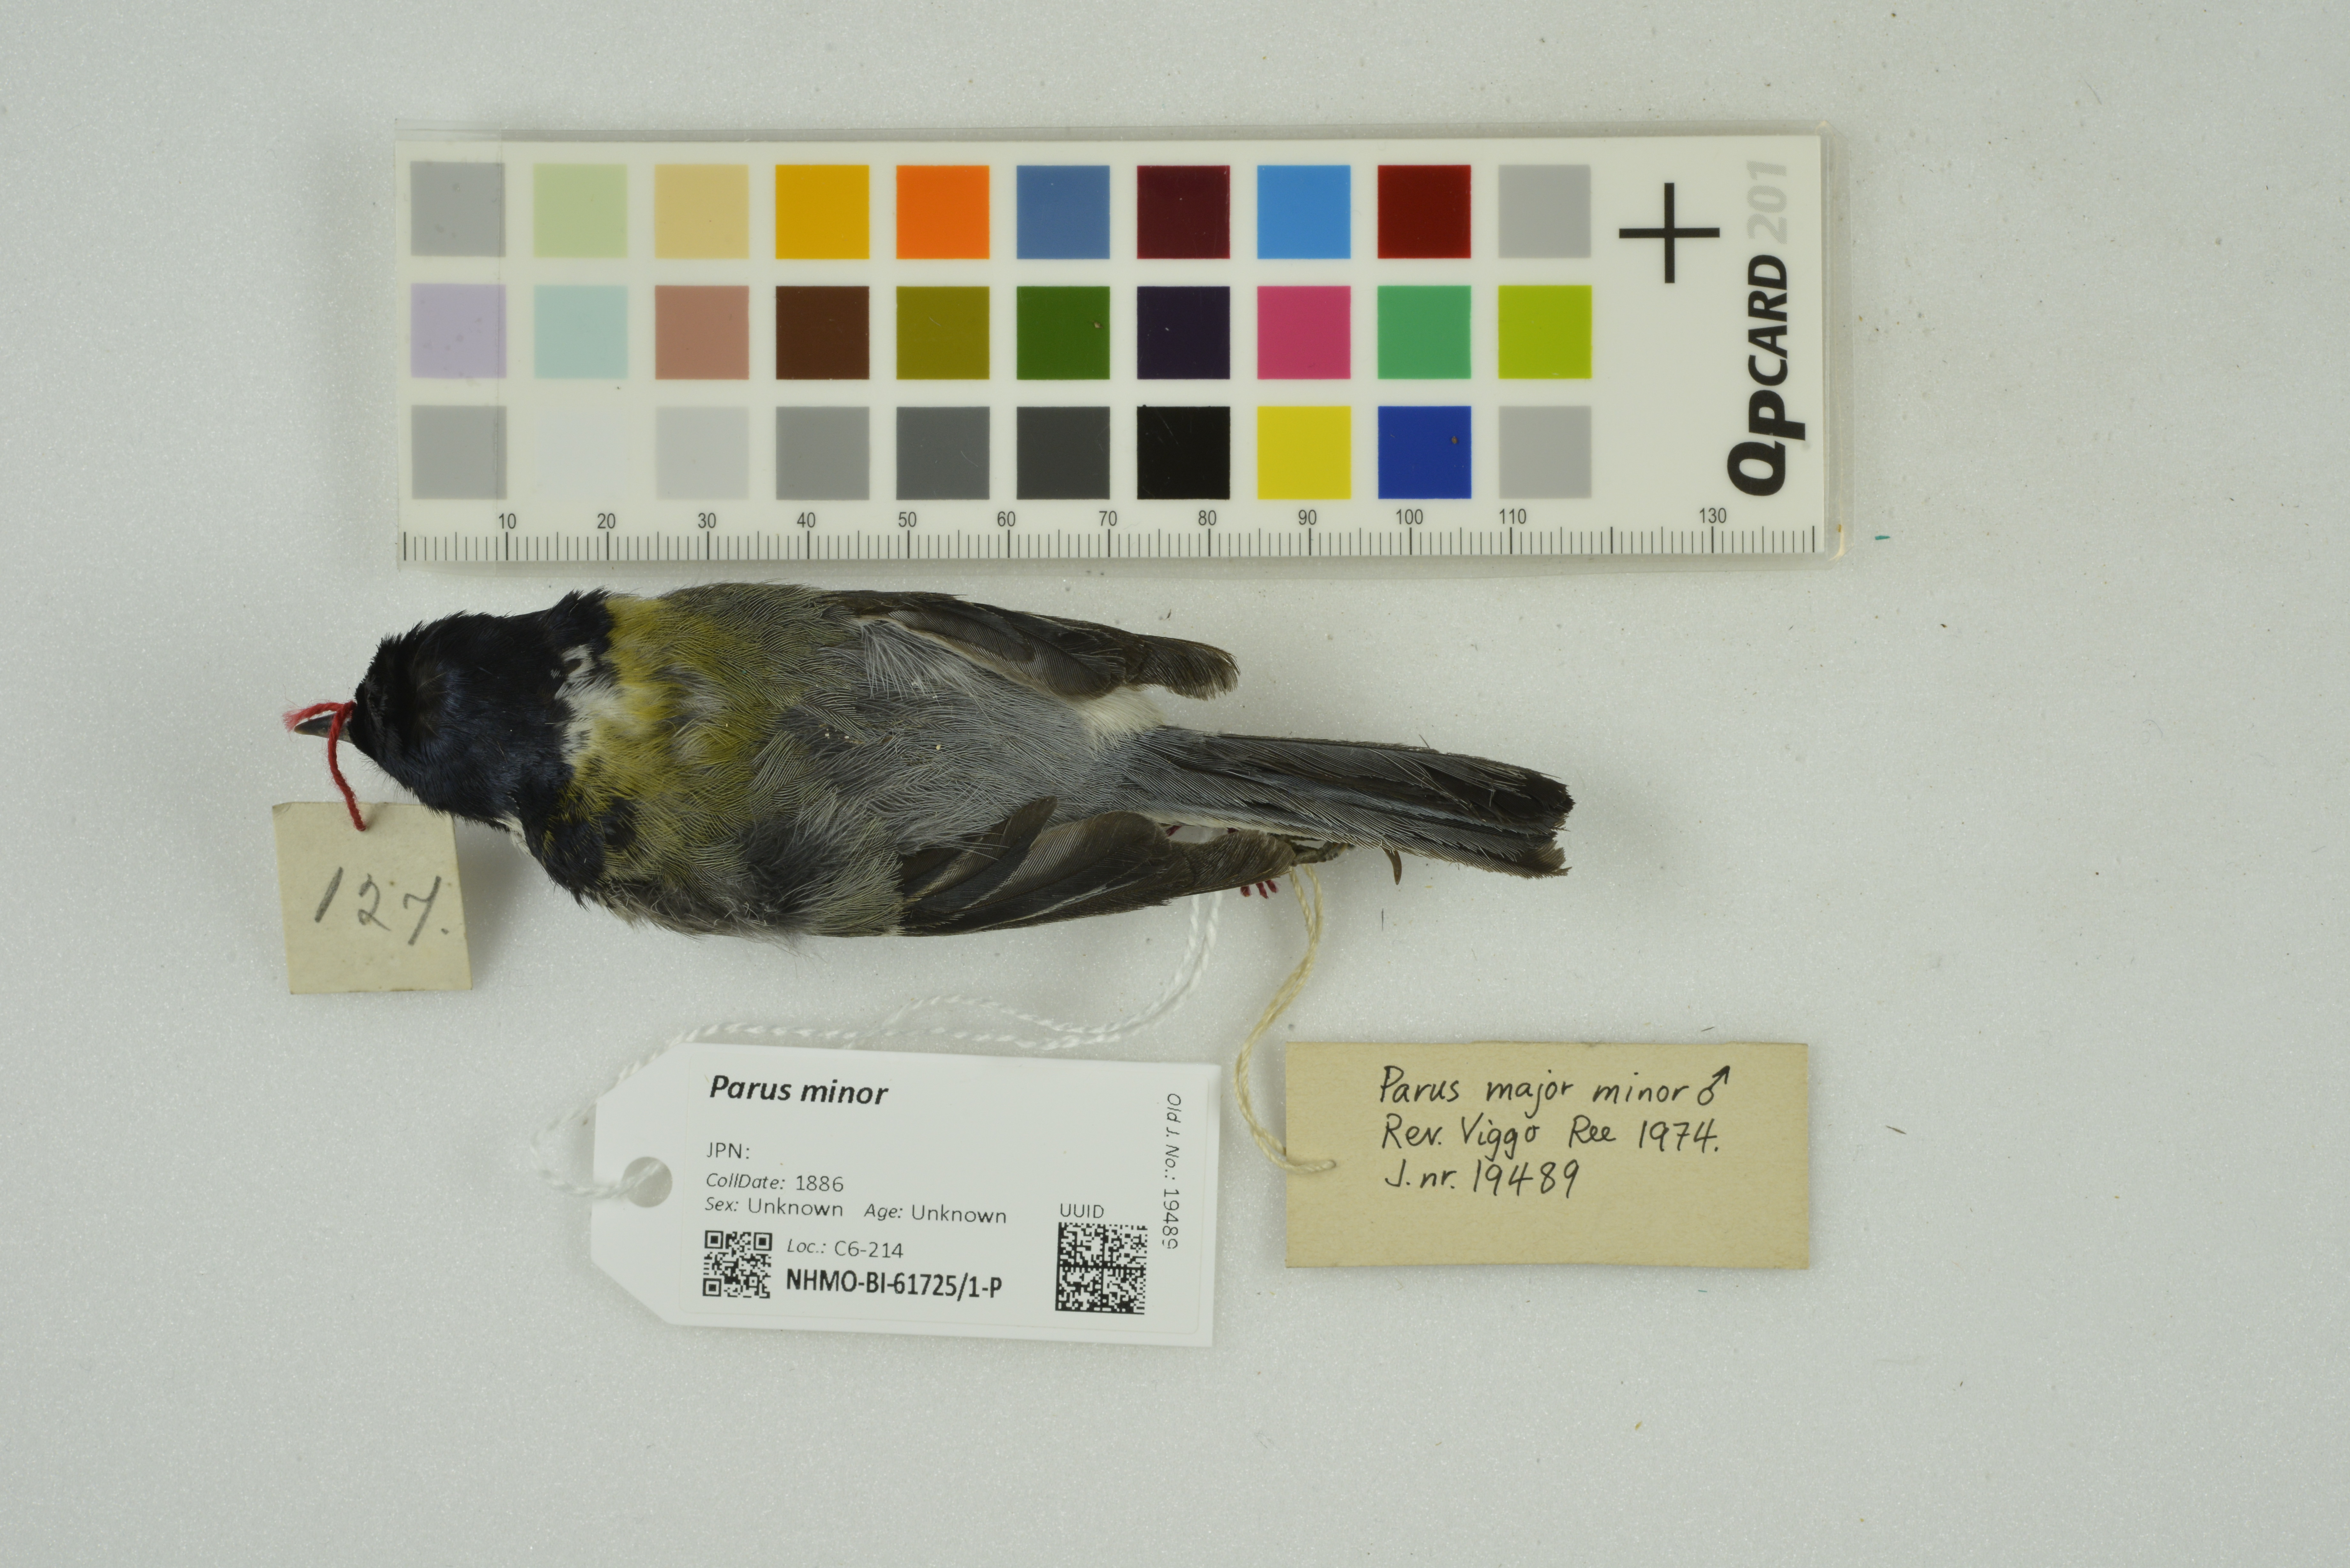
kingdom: Animalia
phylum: Chordata
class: Aves
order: Passeriformes
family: Paridae
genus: Parus
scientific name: Parus minor
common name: Japanese tit
